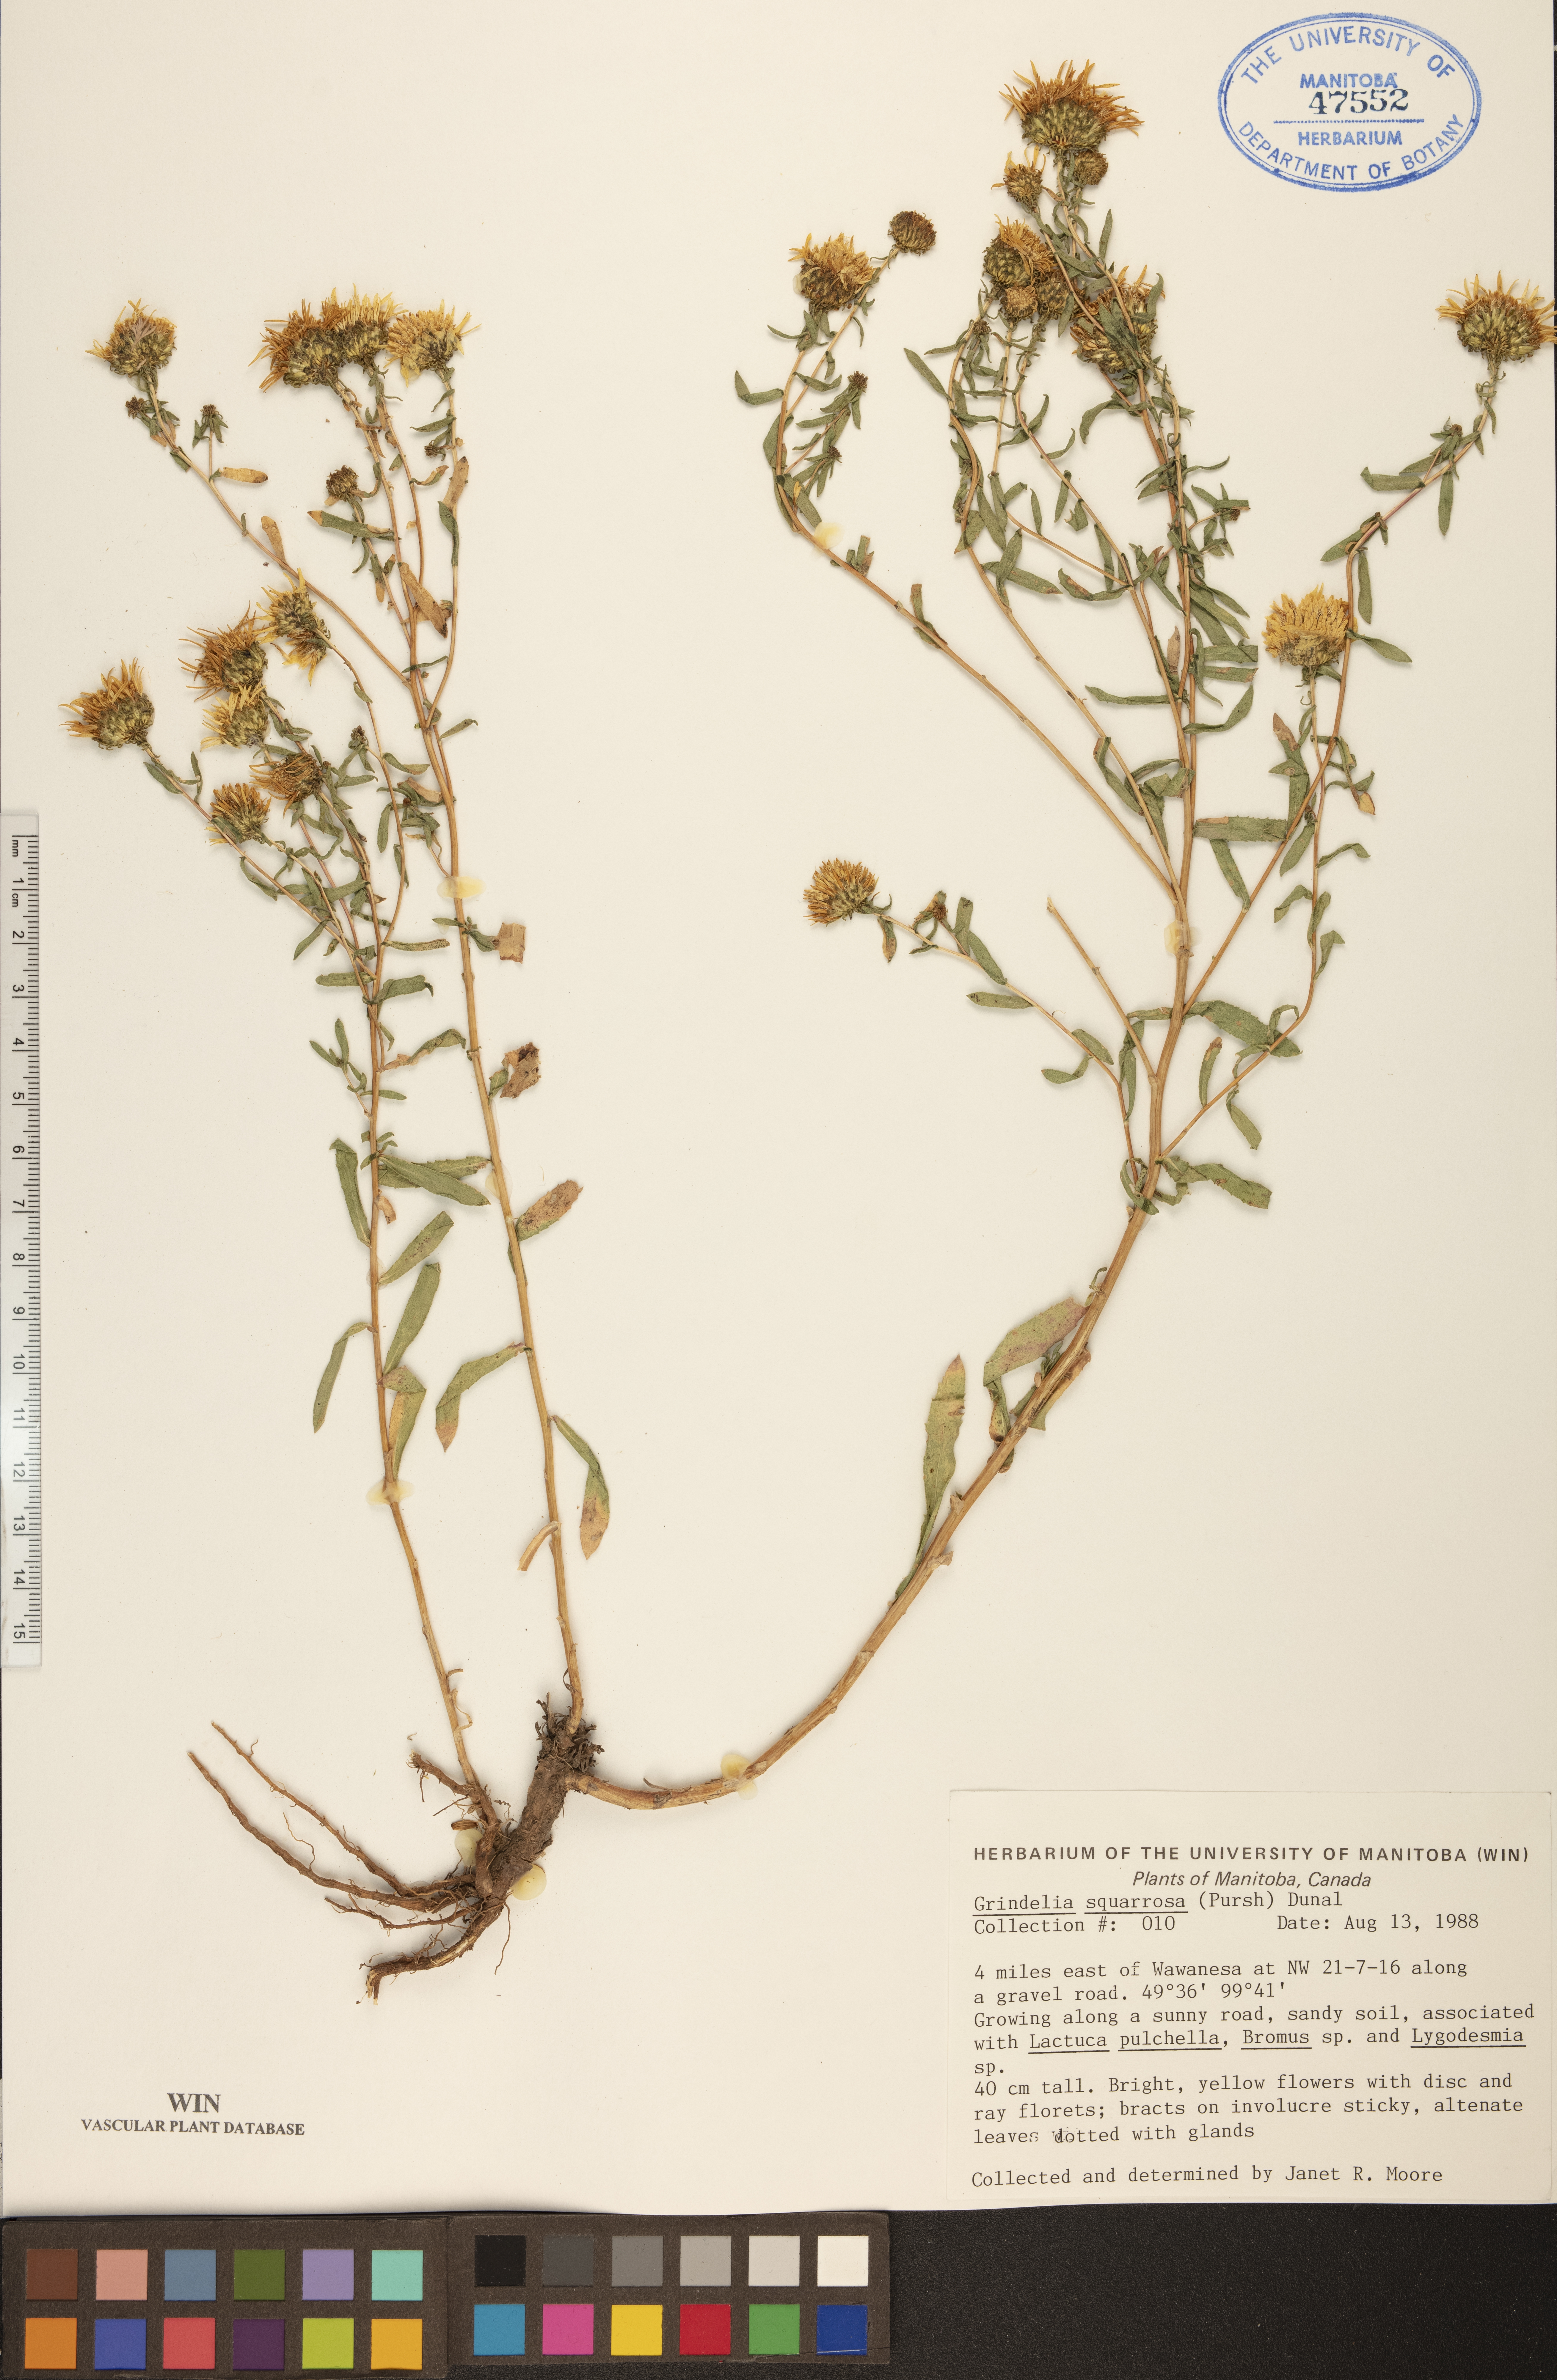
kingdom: Plantae
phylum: Tracheophyta
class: Magnoliopsida
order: Asterales
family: Asteraceae
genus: Grindelia
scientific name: Grindelia squarrosa
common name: Curly-cup gumweed
